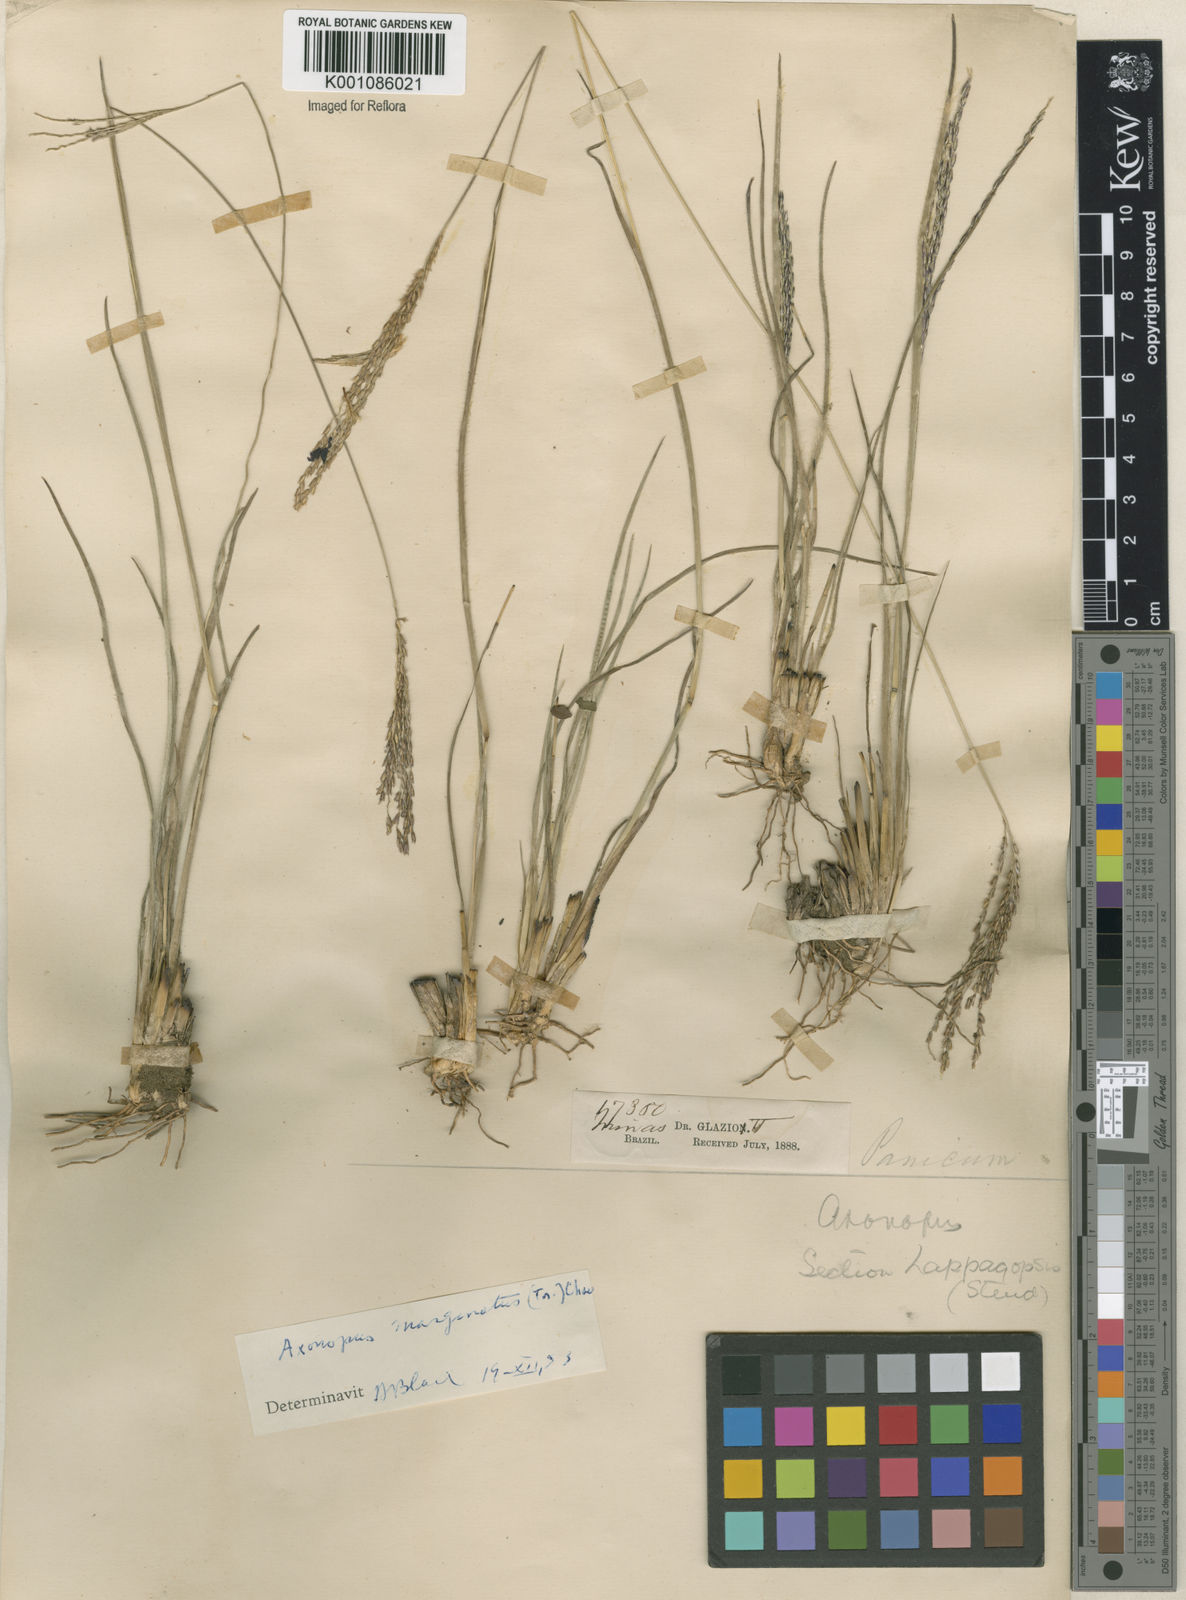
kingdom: Plantae
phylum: Tracheophyta
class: Liliopsida
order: Poales
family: Poaceae
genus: Axonopus
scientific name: Axonopus
